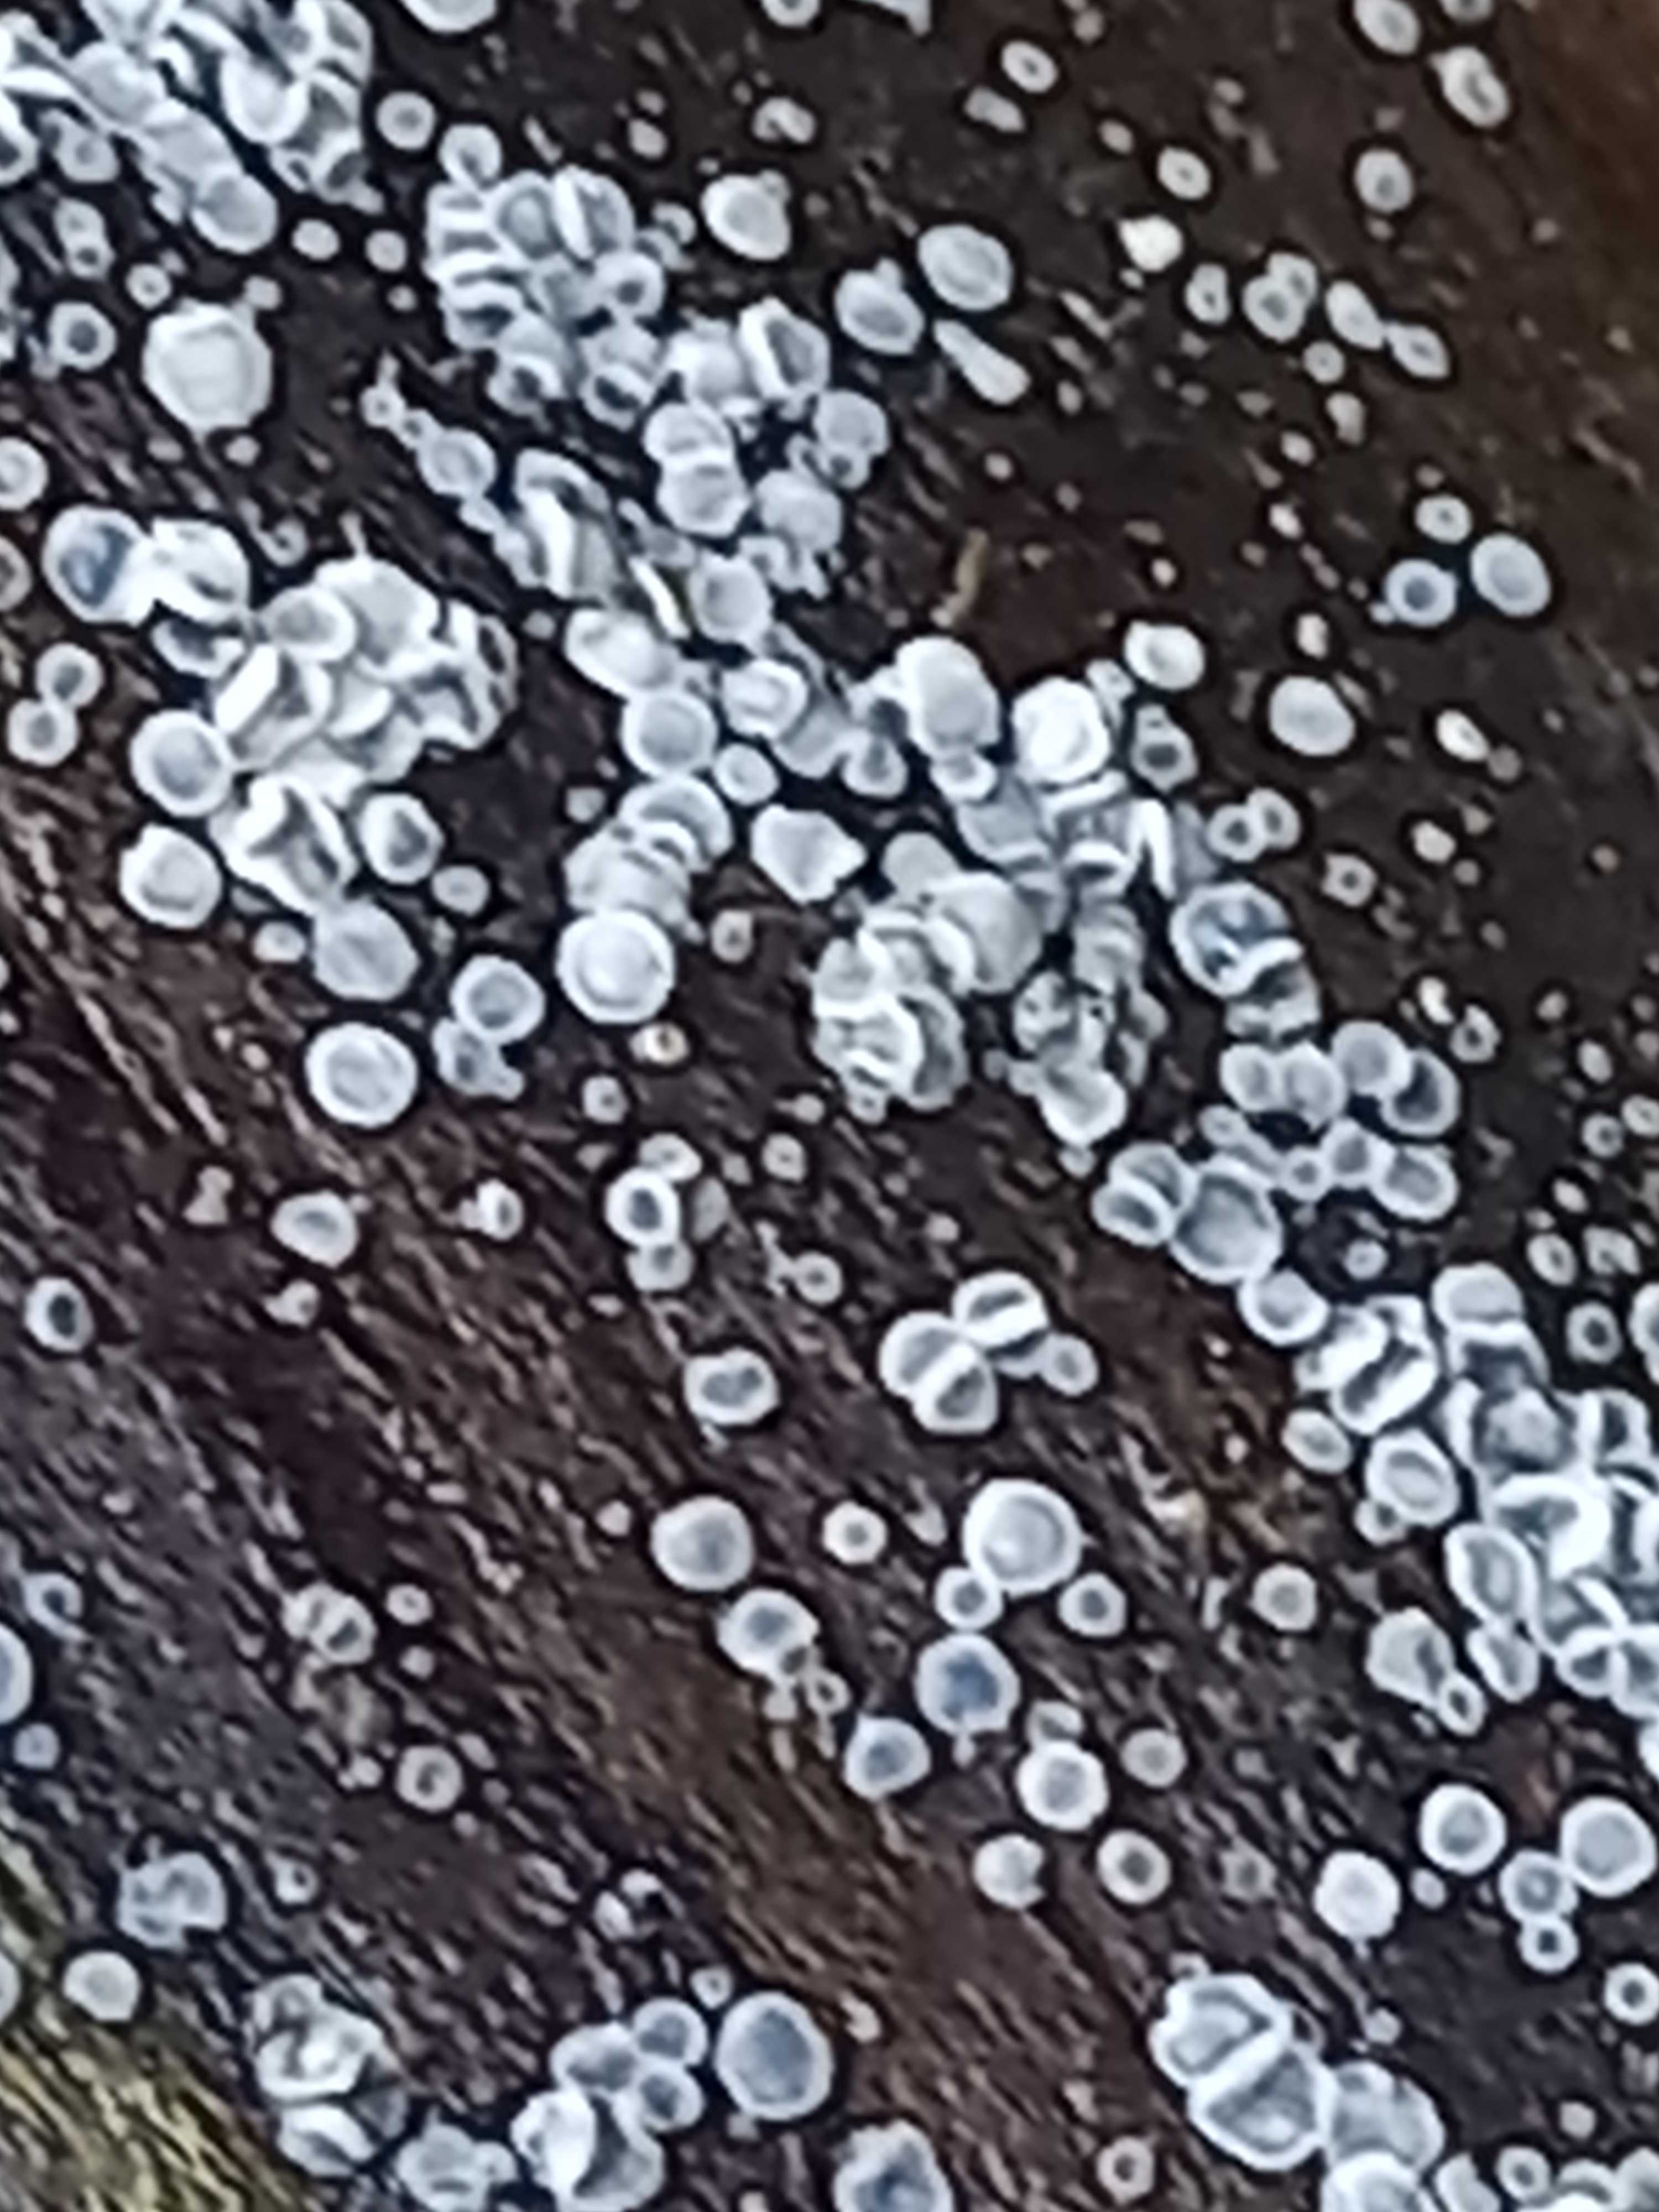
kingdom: Fungi
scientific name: Fungi
